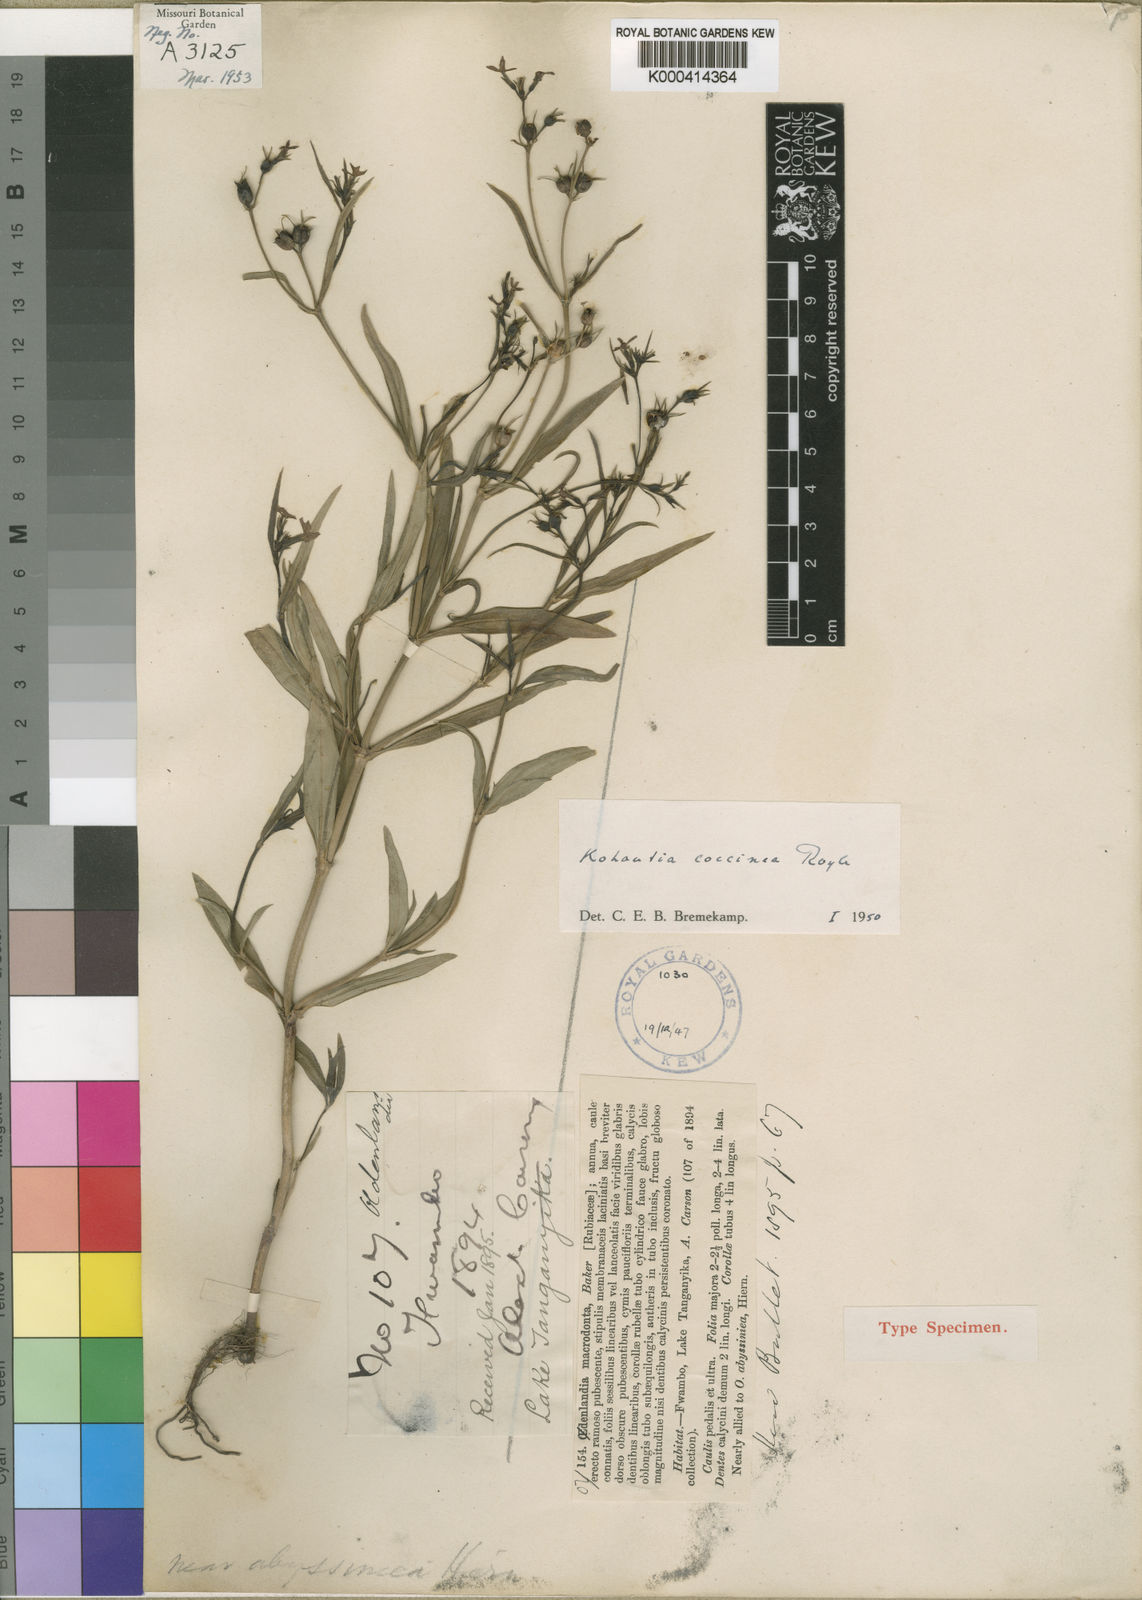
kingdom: Plantae
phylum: Tracheophyta
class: Magnoliopsida
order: Gentianales
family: Rubiaceae
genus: Kohautia
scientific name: Kohautia coccinea
